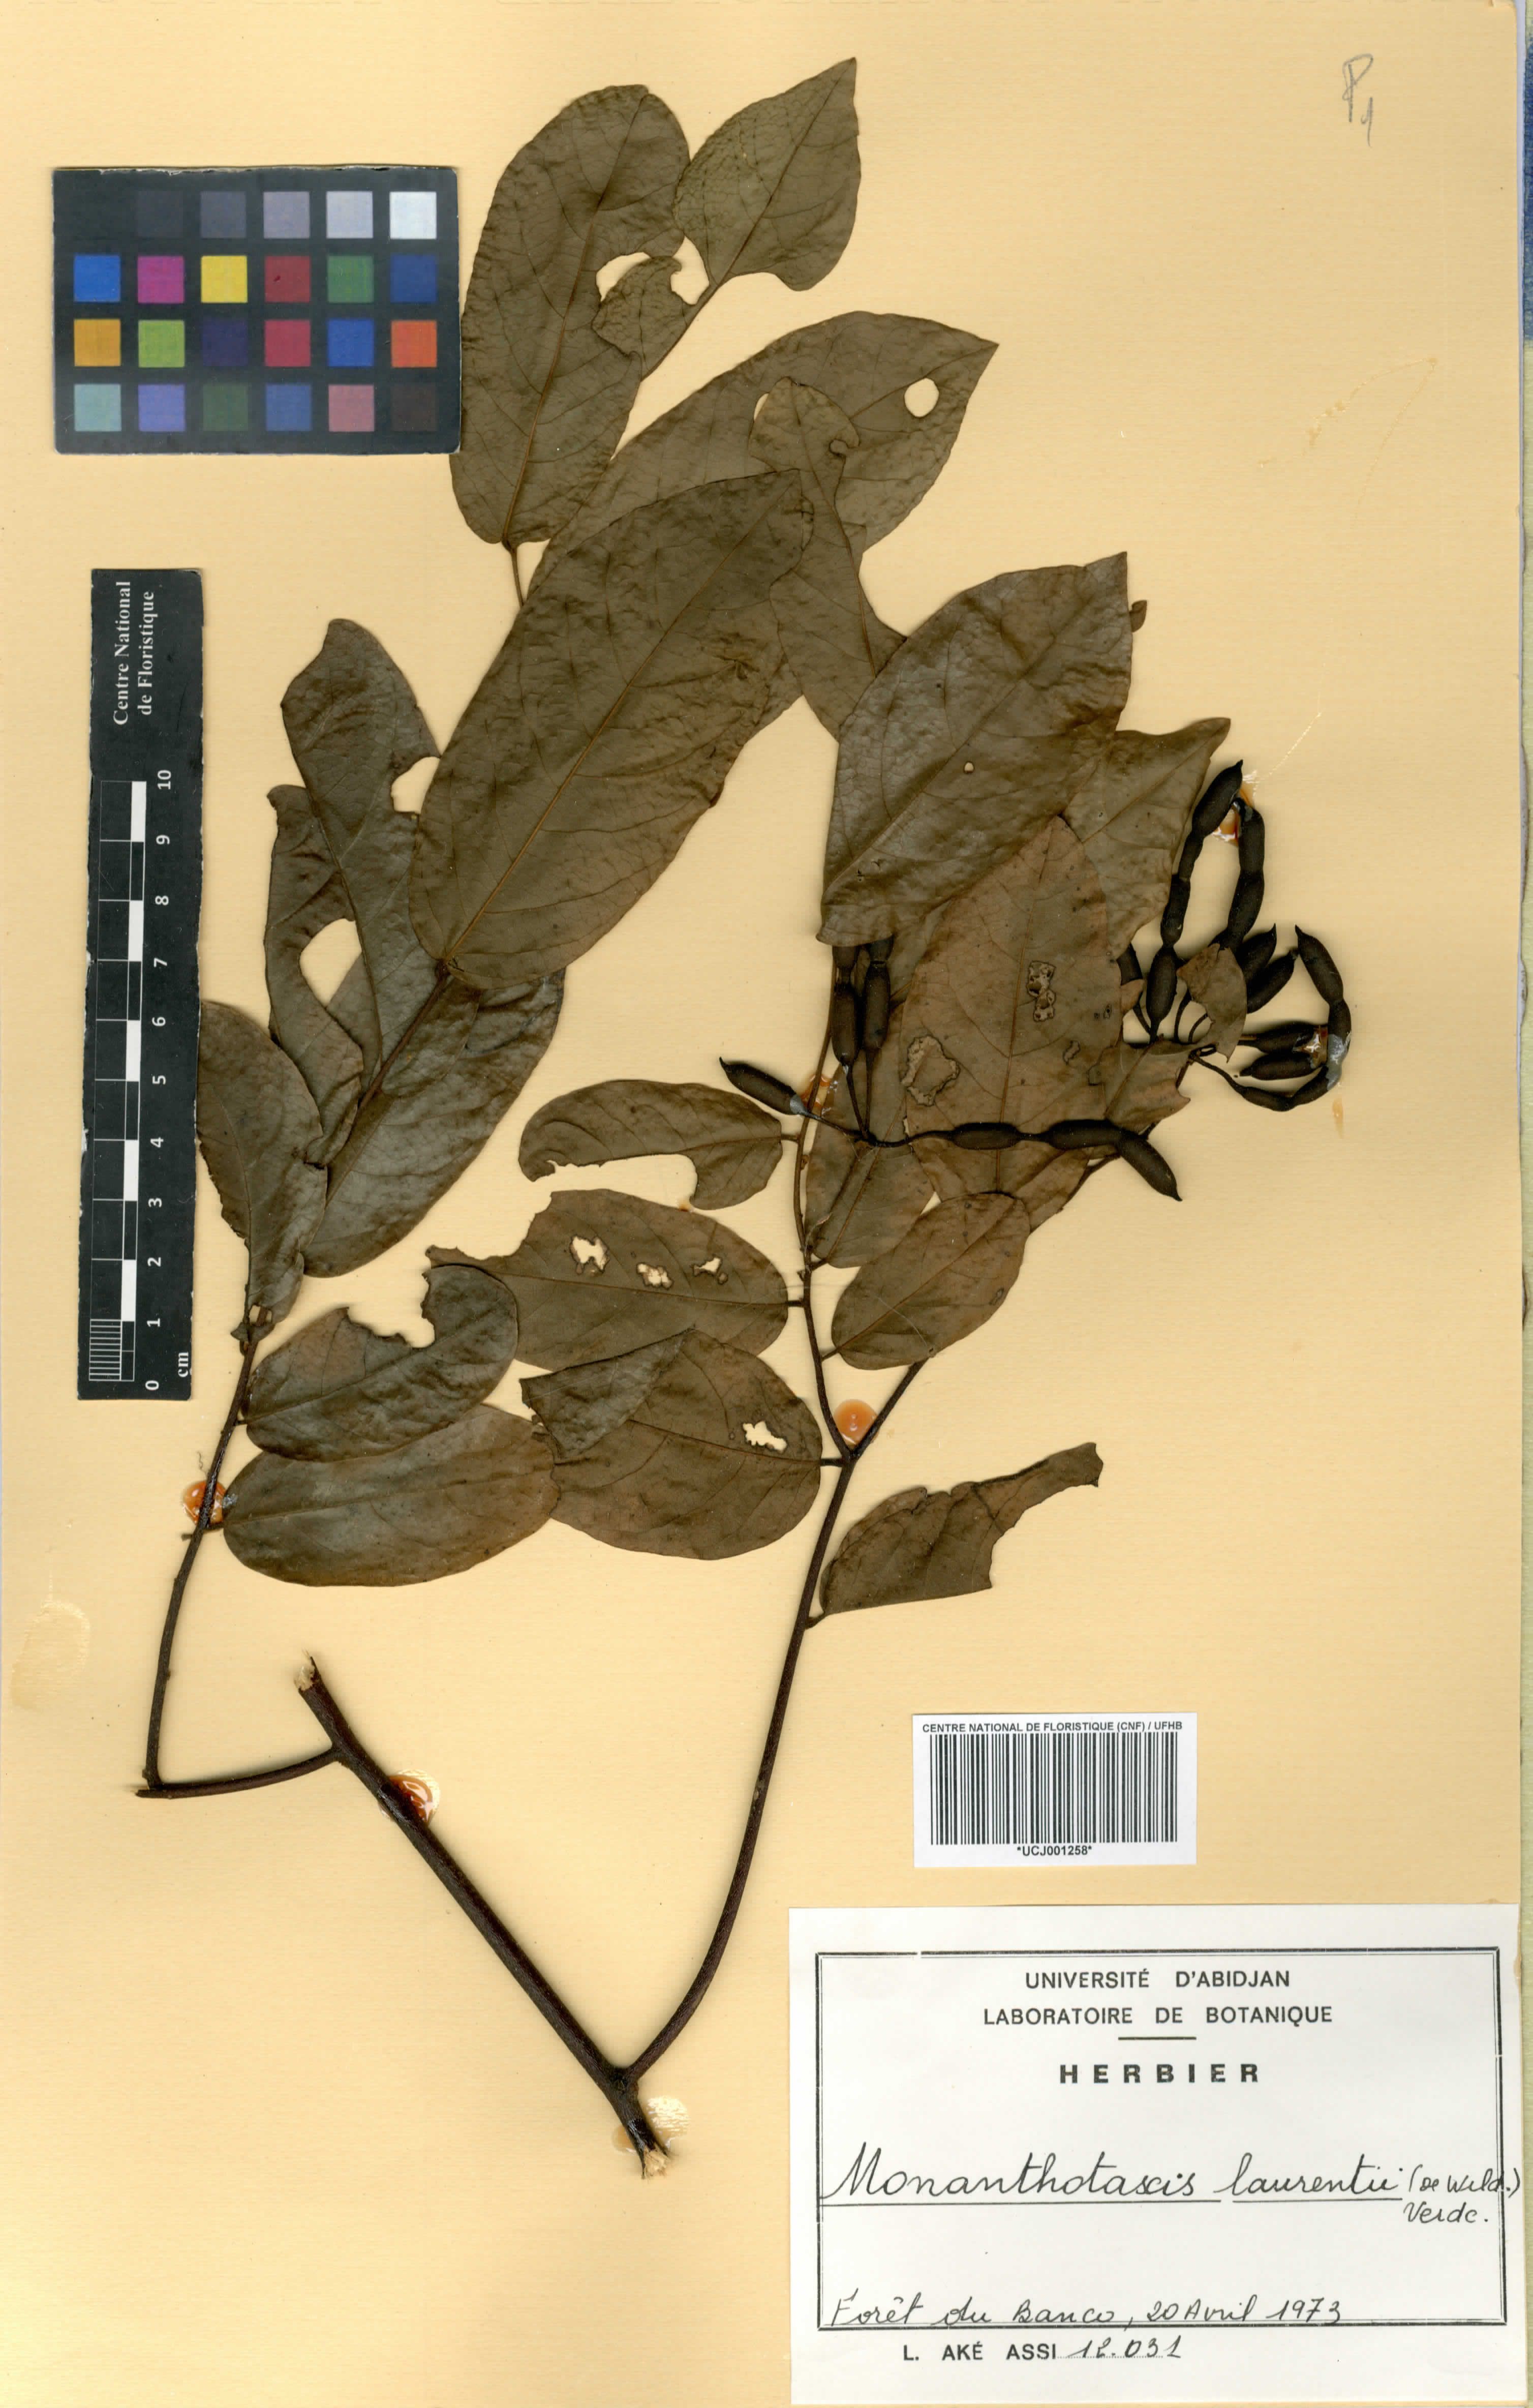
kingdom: Plantae
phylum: Tracheophyta
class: Magnoliopsida
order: Magnoliales
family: Annonaceae
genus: Monanthotaxis
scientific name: Monanthotaxis laurentii
